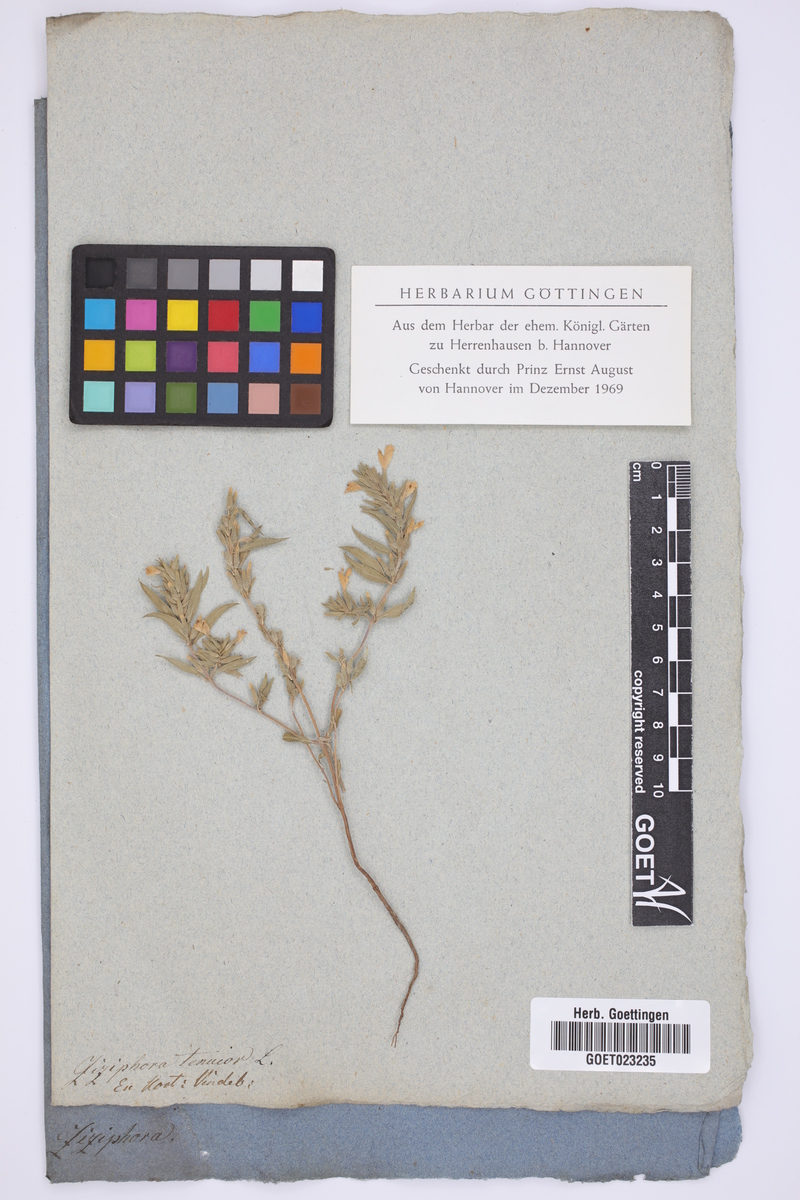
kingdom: Plantae
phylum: Tracheophyta
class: Magnoliopsida
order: Lamiales
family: Lamiaceae
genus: Ziziphora
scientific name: Ziziphora tenuior
